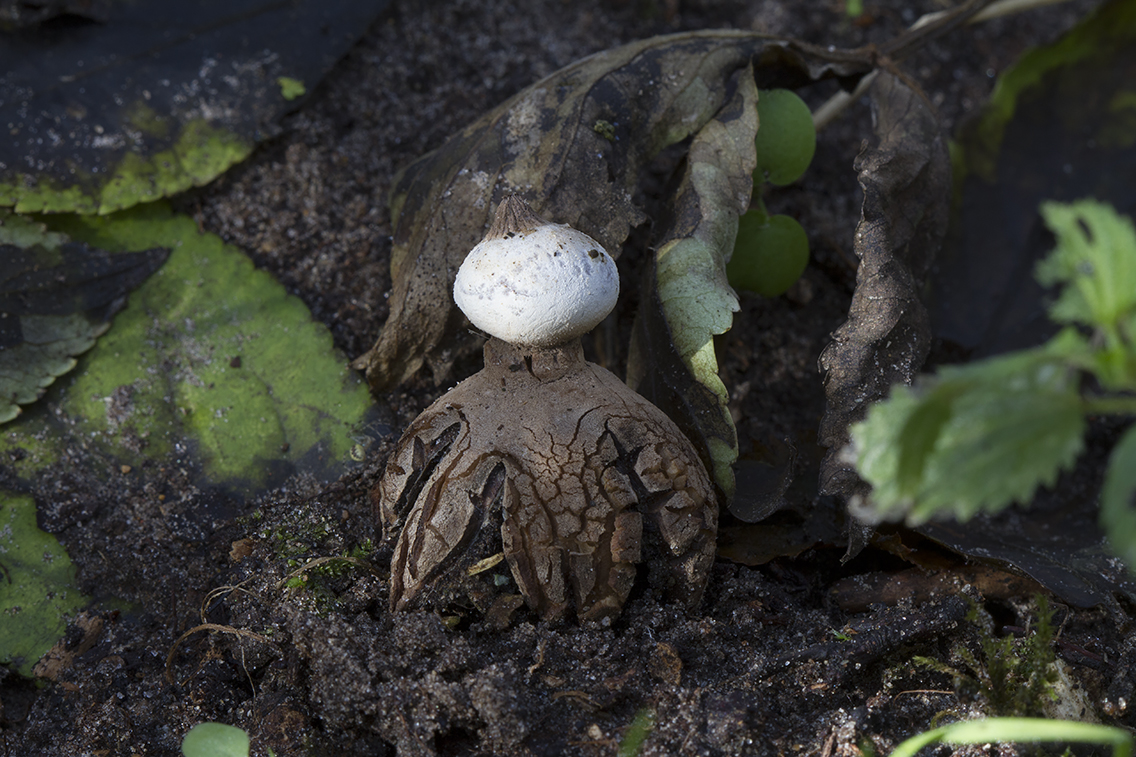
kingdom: Fungi
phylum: Basidiomycota
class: Agaricomycetes
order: Geastrales
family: Geastraceae
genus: Geastrum
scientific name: Geastrum striatum
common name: krave-stjernebold
